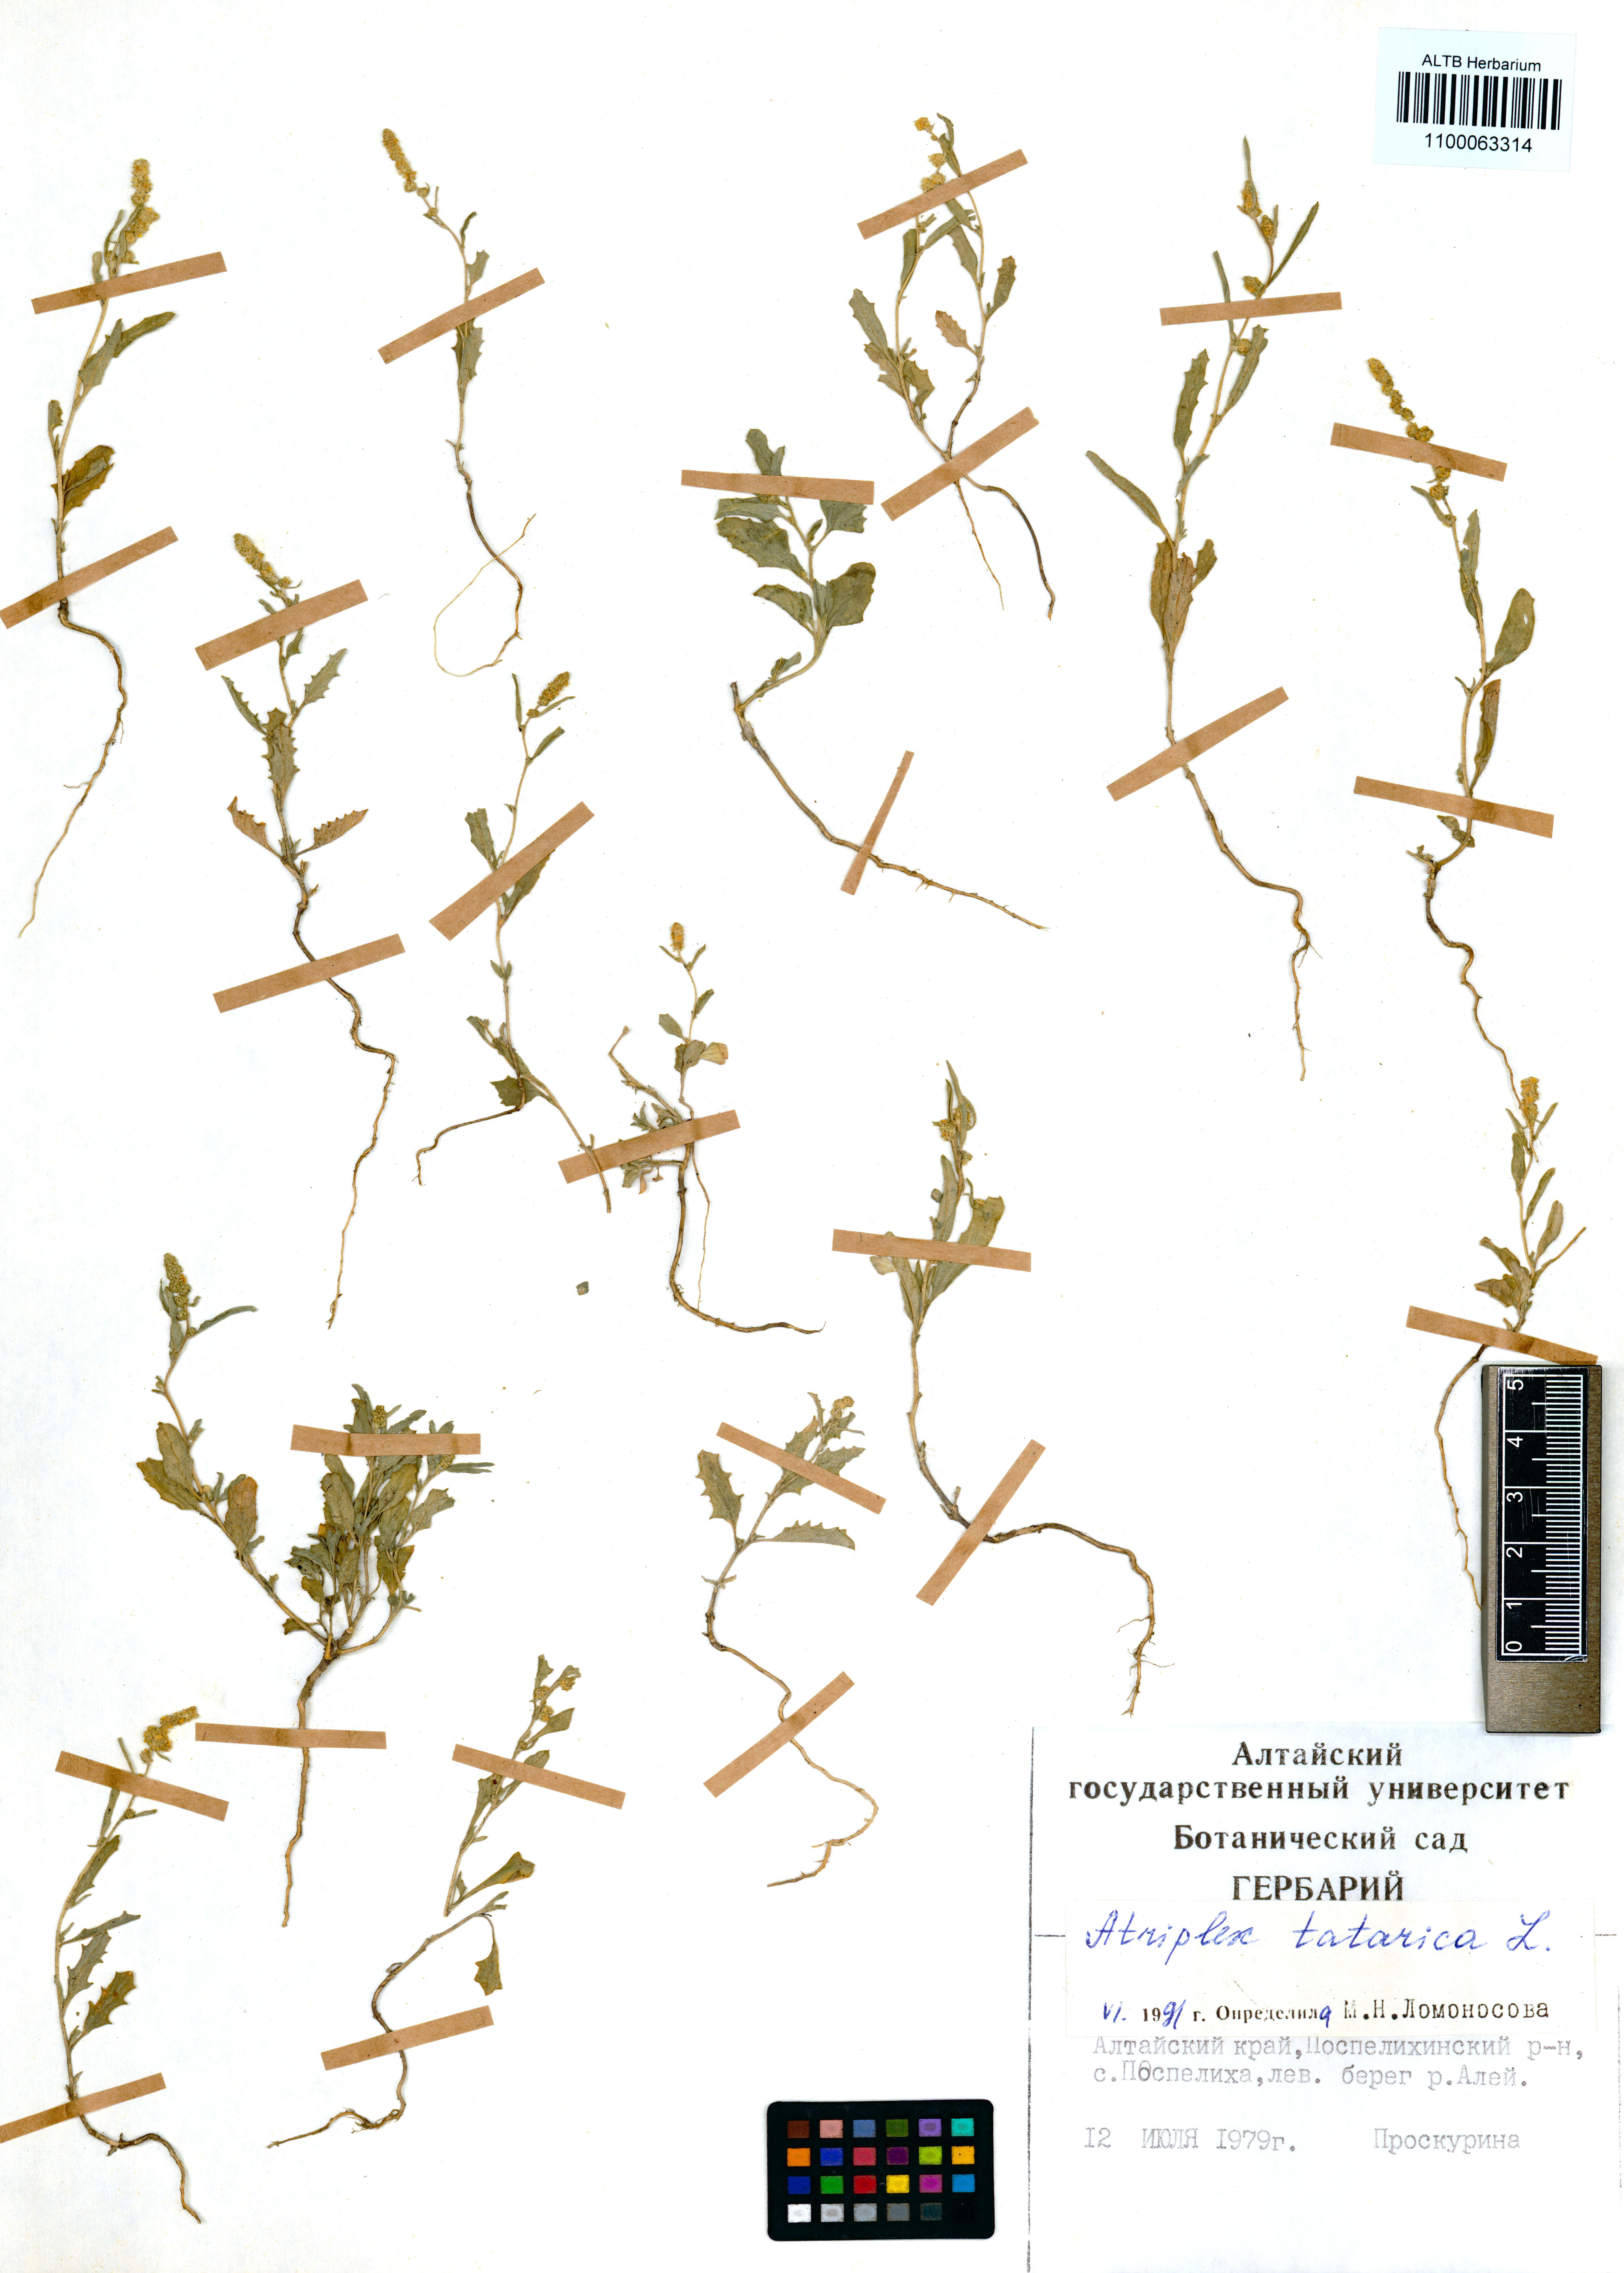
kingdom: Plantae
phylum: Tracheophyta
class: Magnoliopsida
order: Caryophyllales
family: Amaranthaceae
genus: Atriplex
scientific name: Atriplex tatarica
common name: Tatarian orache
